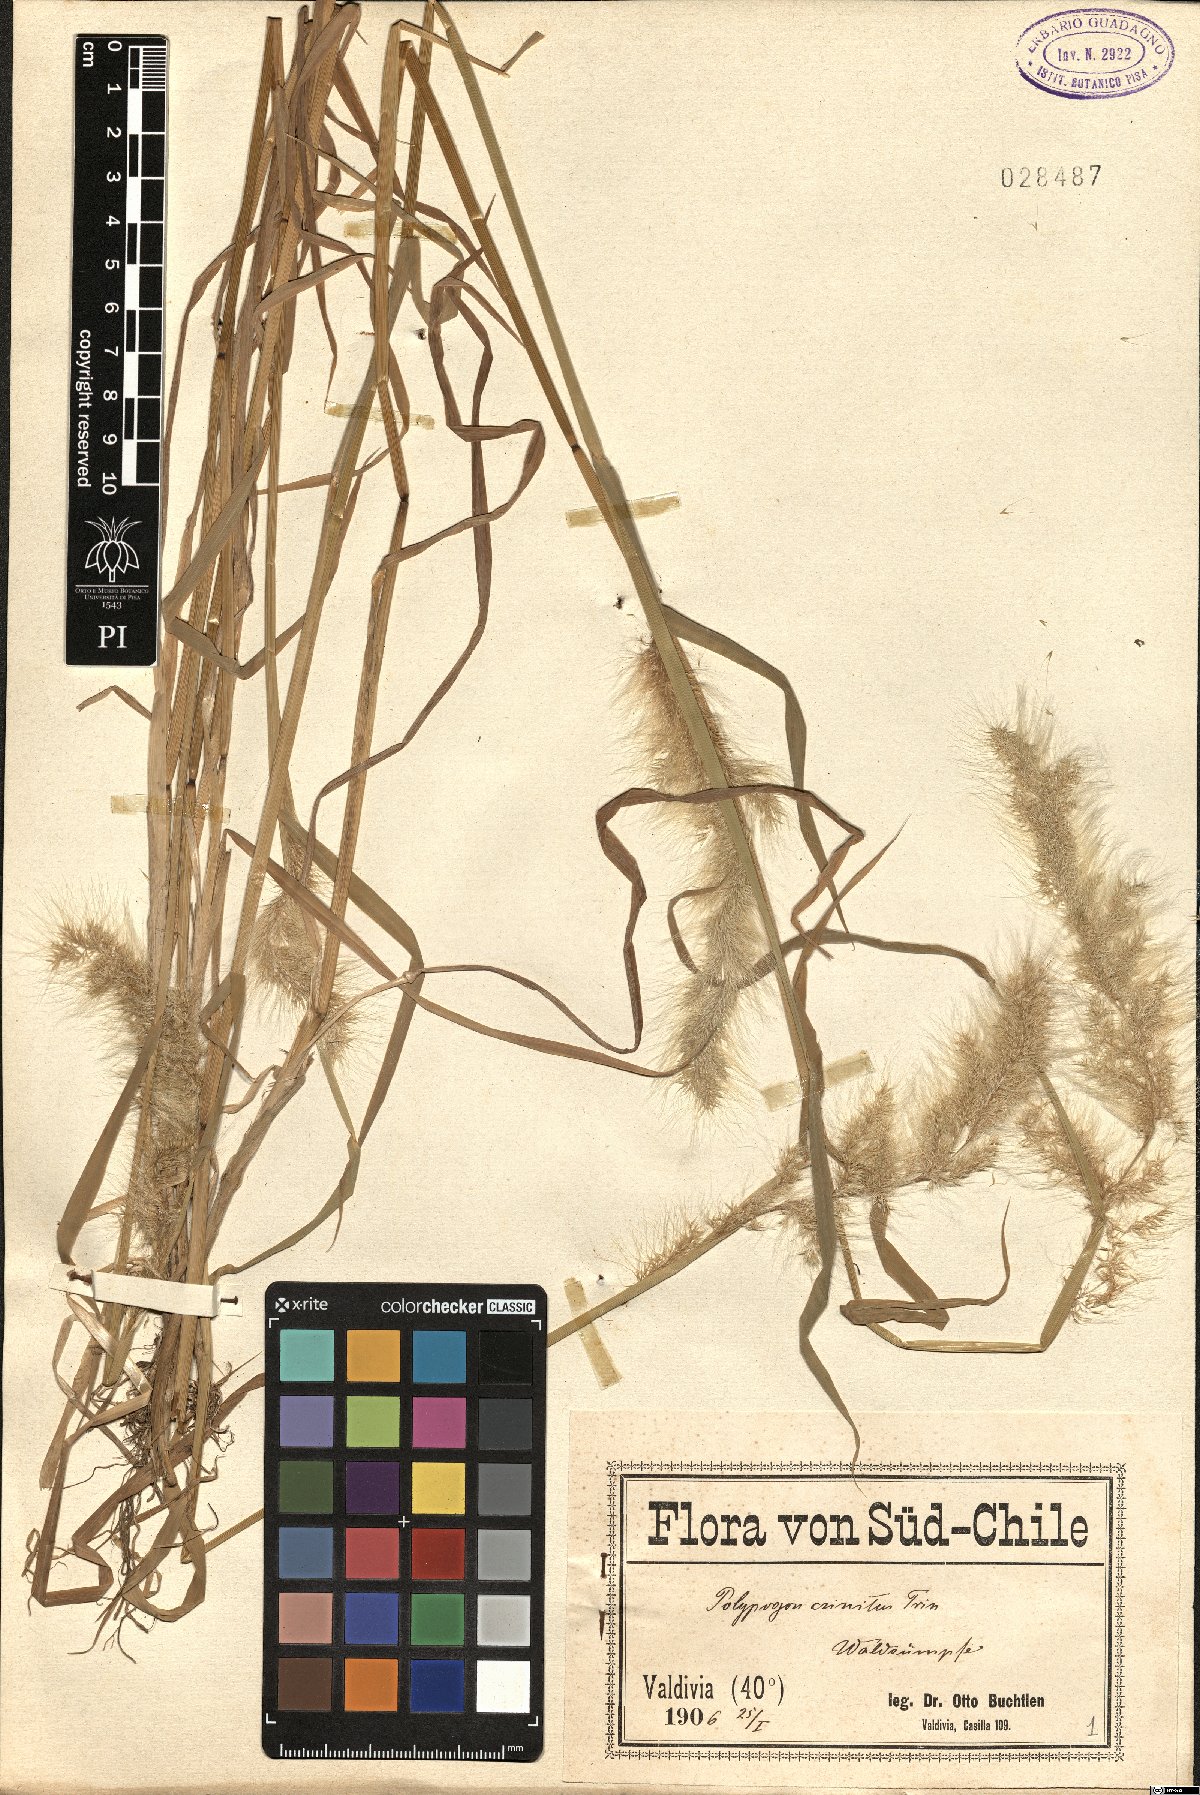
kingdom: Plantae
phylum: Tracheophyta
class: Liliopsida
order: Poales
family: Poaceae
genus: Polypogon
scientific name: Polypogon australis
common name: Chilean rabbitsfoot grass
